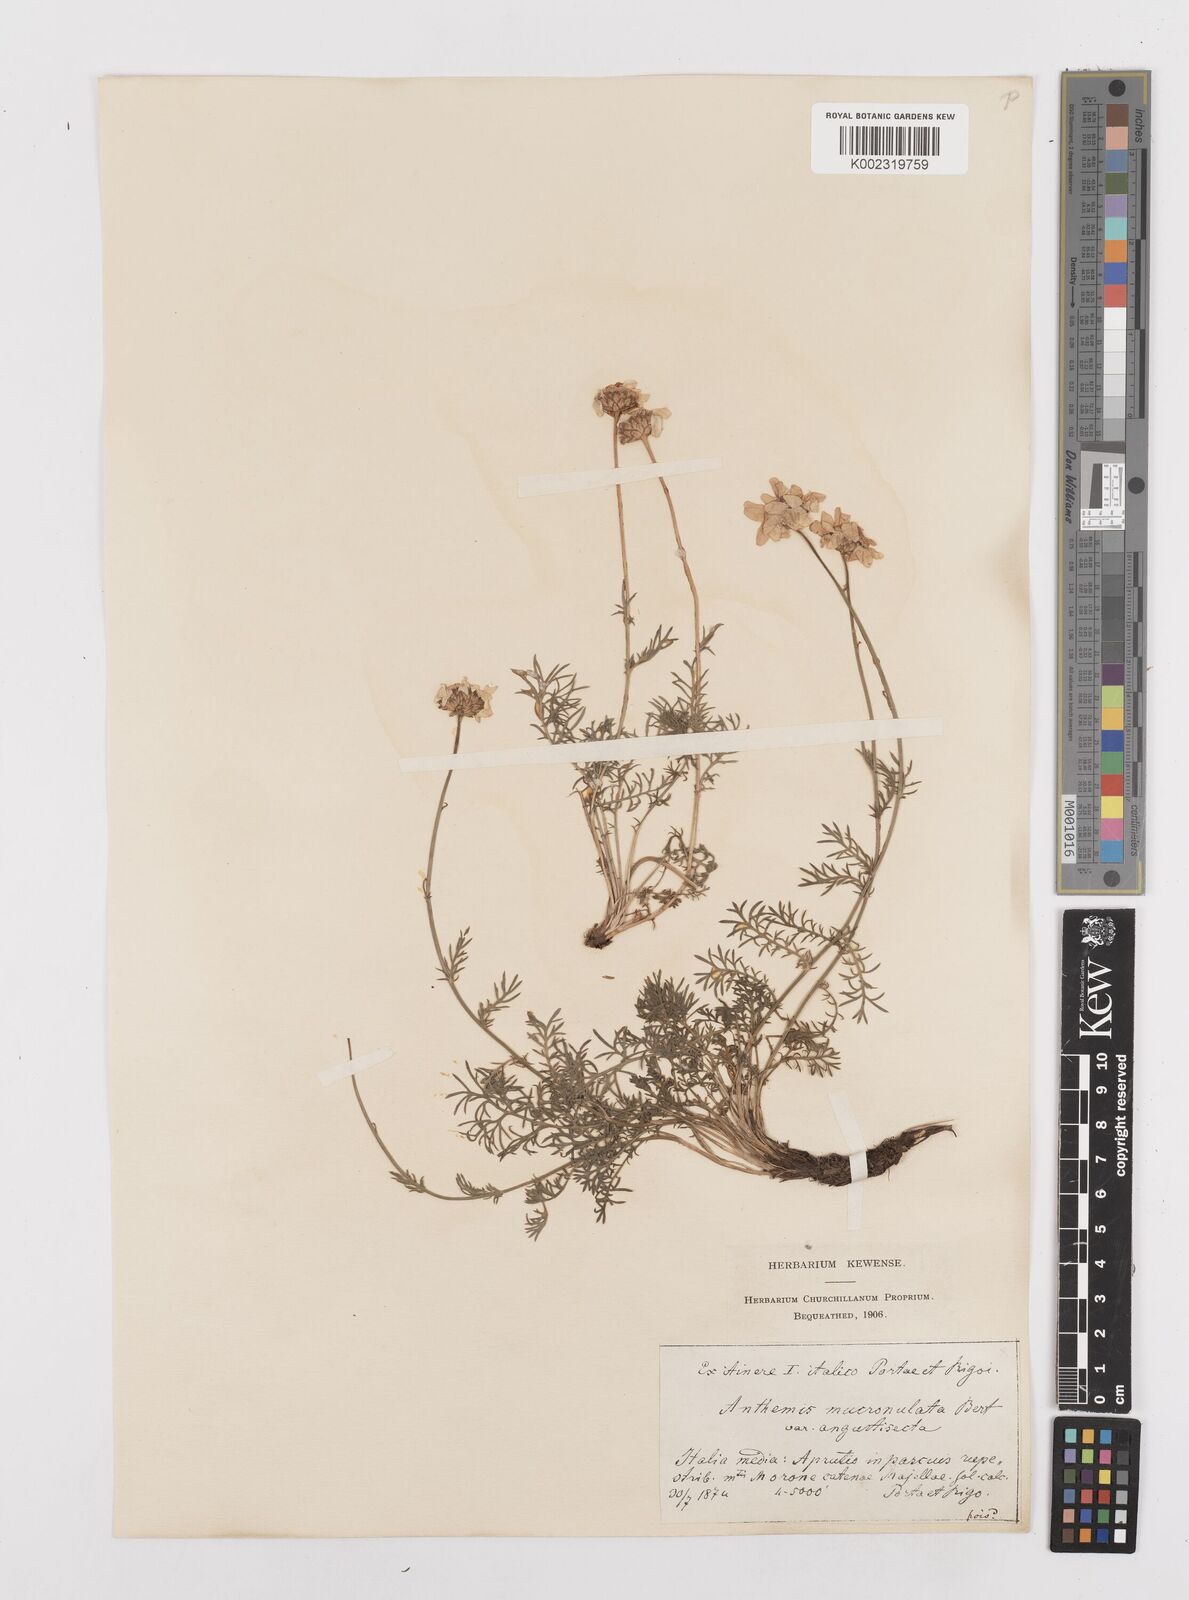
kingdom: Plantae
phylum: Tracheophyta
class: Magnoliopsida
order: Asterales
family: Asteraceae
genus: Achillea
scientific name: Achillea barrelieri
